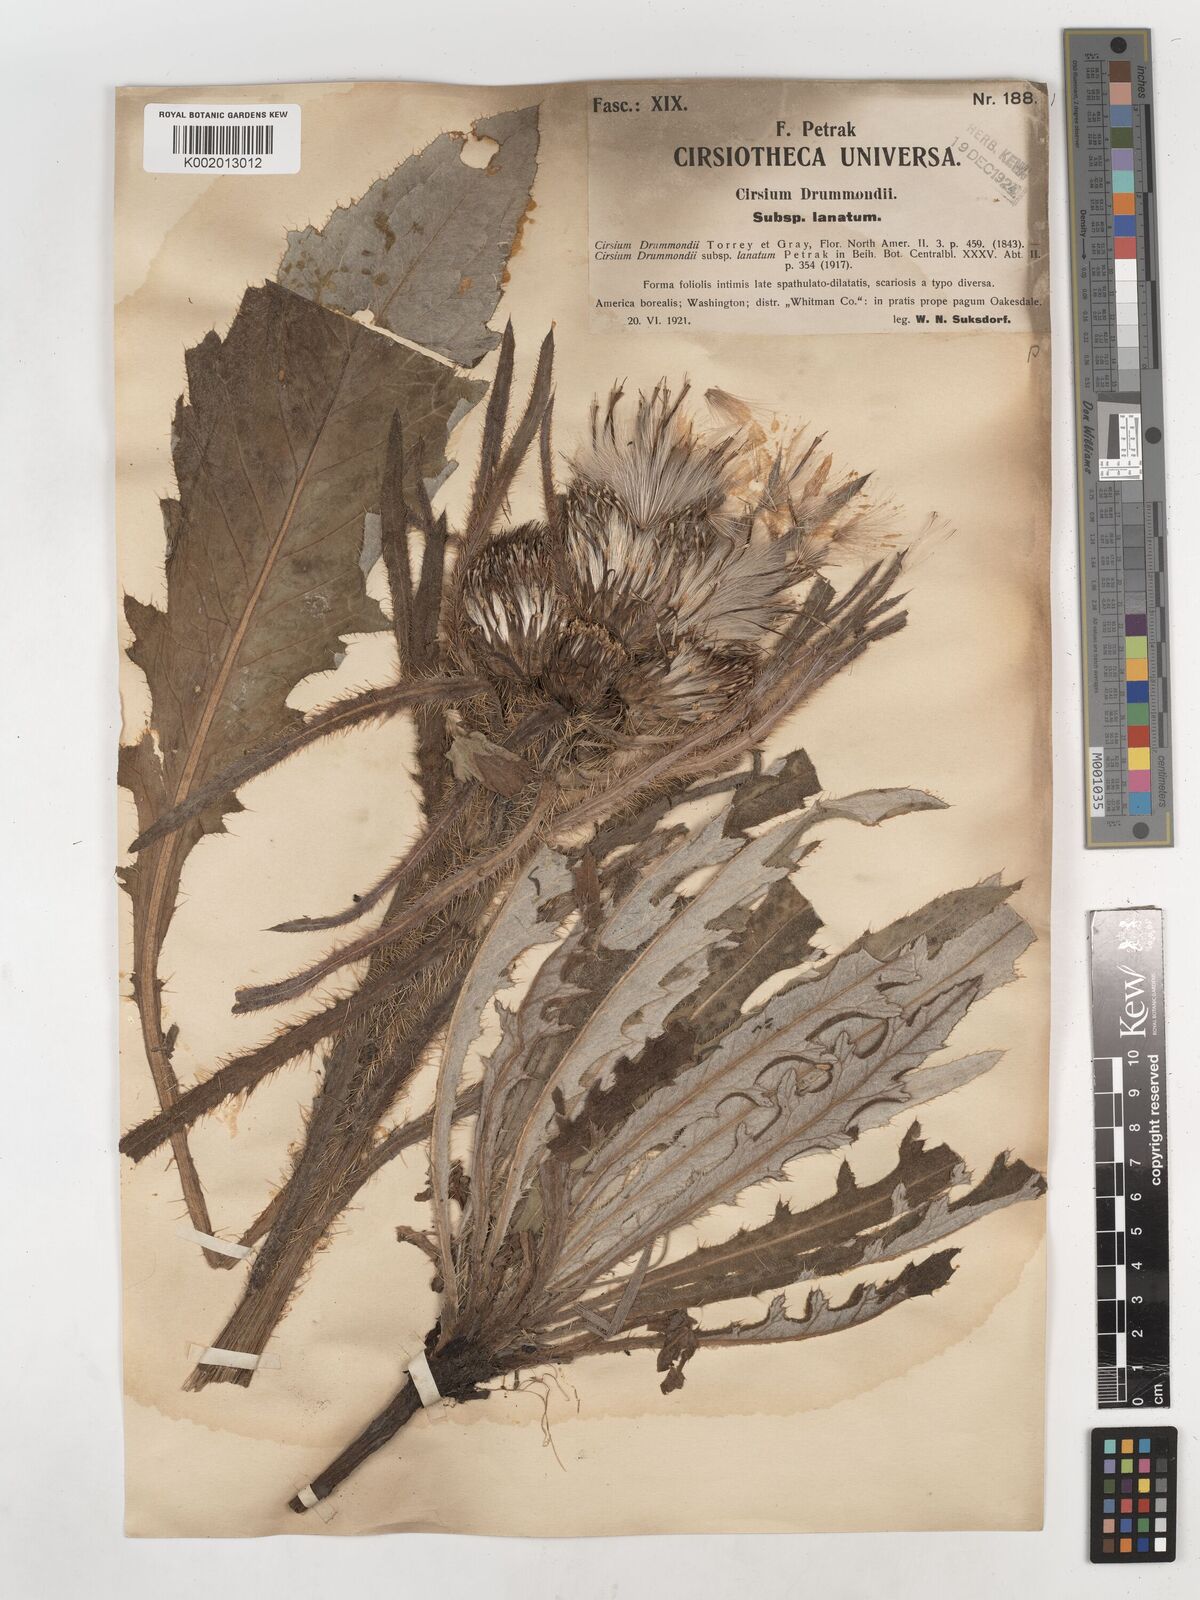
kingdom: Plantae
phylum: Tracheophyta
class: Magnoliopsida
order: Asterales
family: Asteraceae
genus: Cirsium
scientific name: Cirsium drummondii
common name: Drummond's thistle
